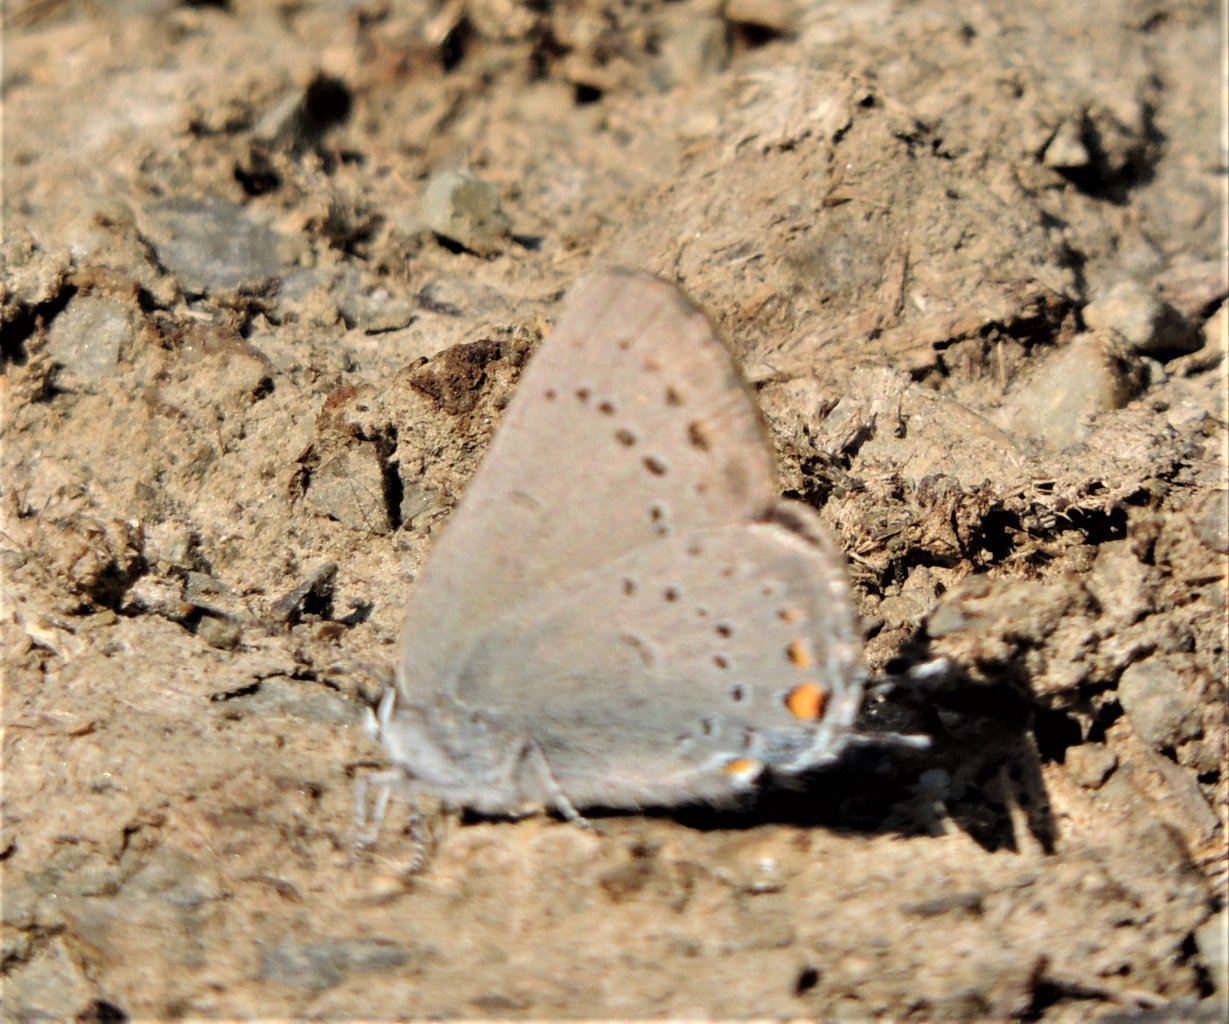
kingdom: Animalia
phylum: Arthropoda
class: Insecta
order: Lepidoptera
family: Lycaenidae
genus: Elkalyce
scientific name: Elkalyce comyntas
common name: Eastern Tailed-Blue
